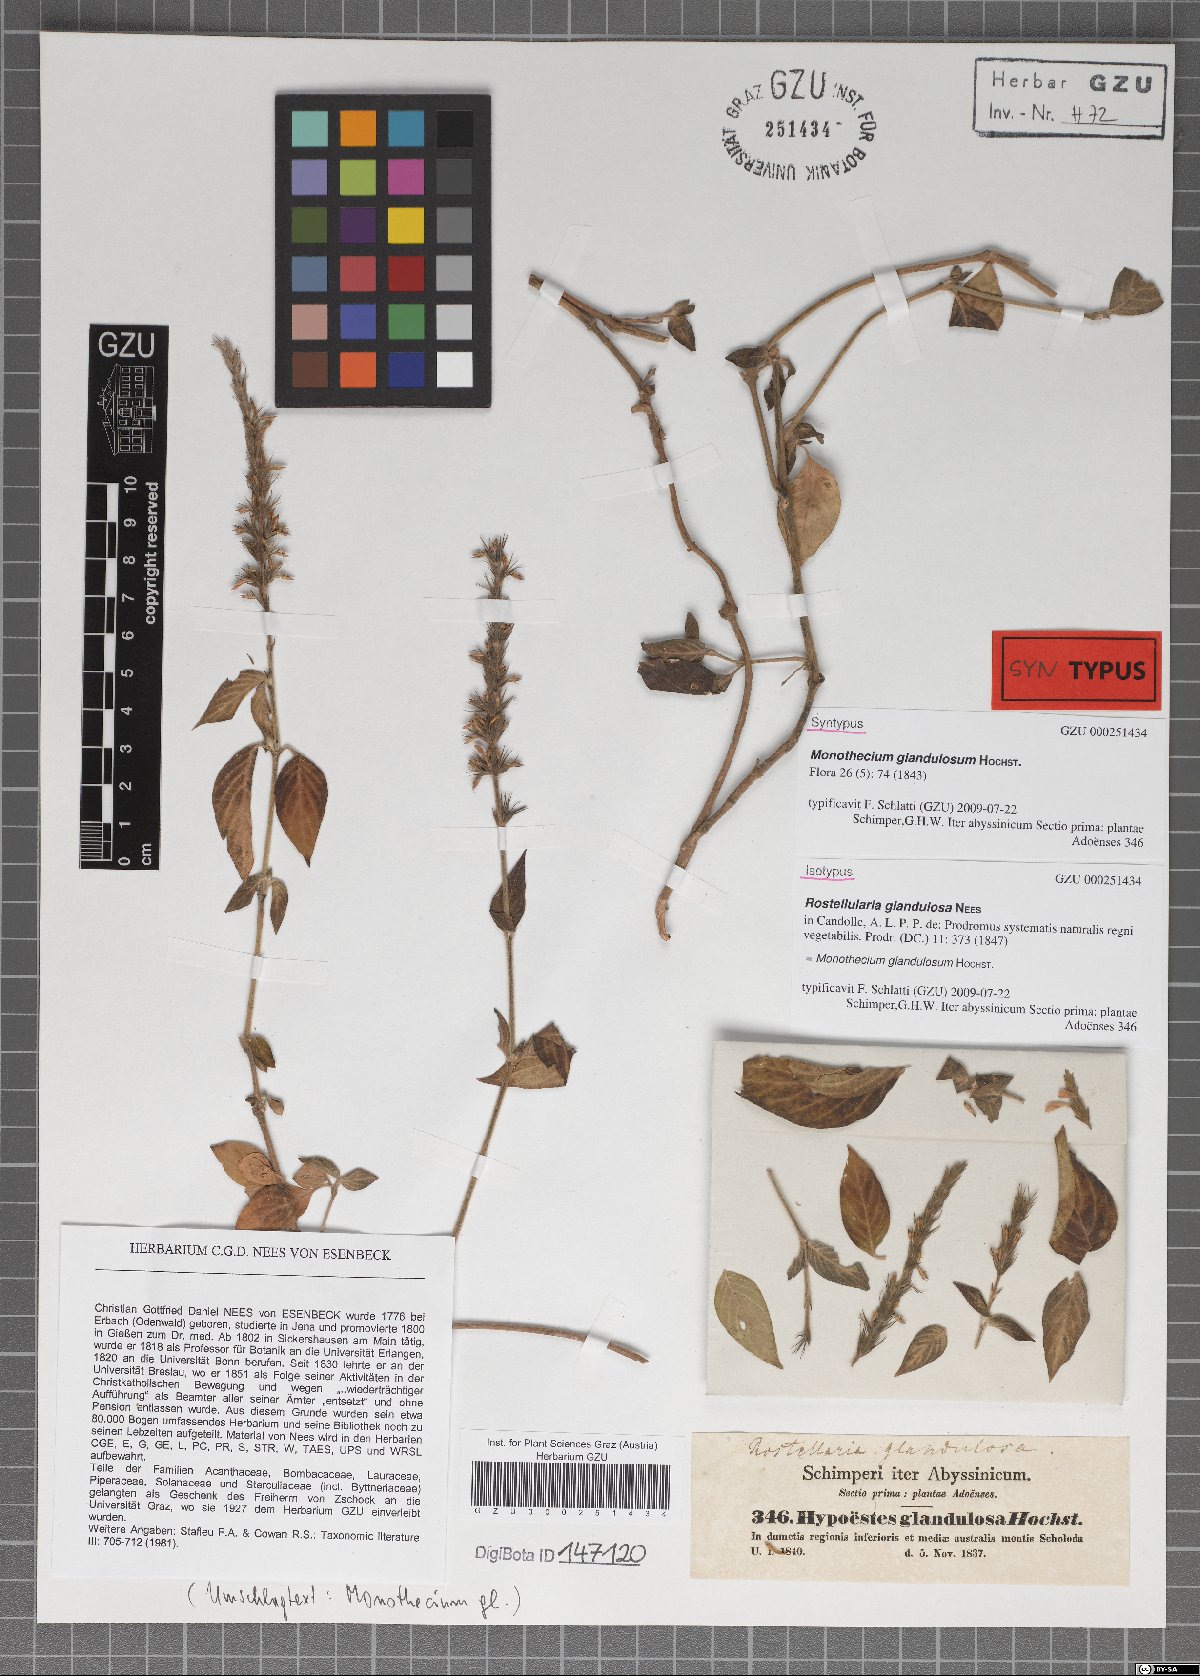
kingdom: Plantae
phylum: Tracheophyta
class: Magnoliopsida
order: Lamiales
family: Acanthaceae
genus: Monothecium
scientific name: Monothecium glandulosum
